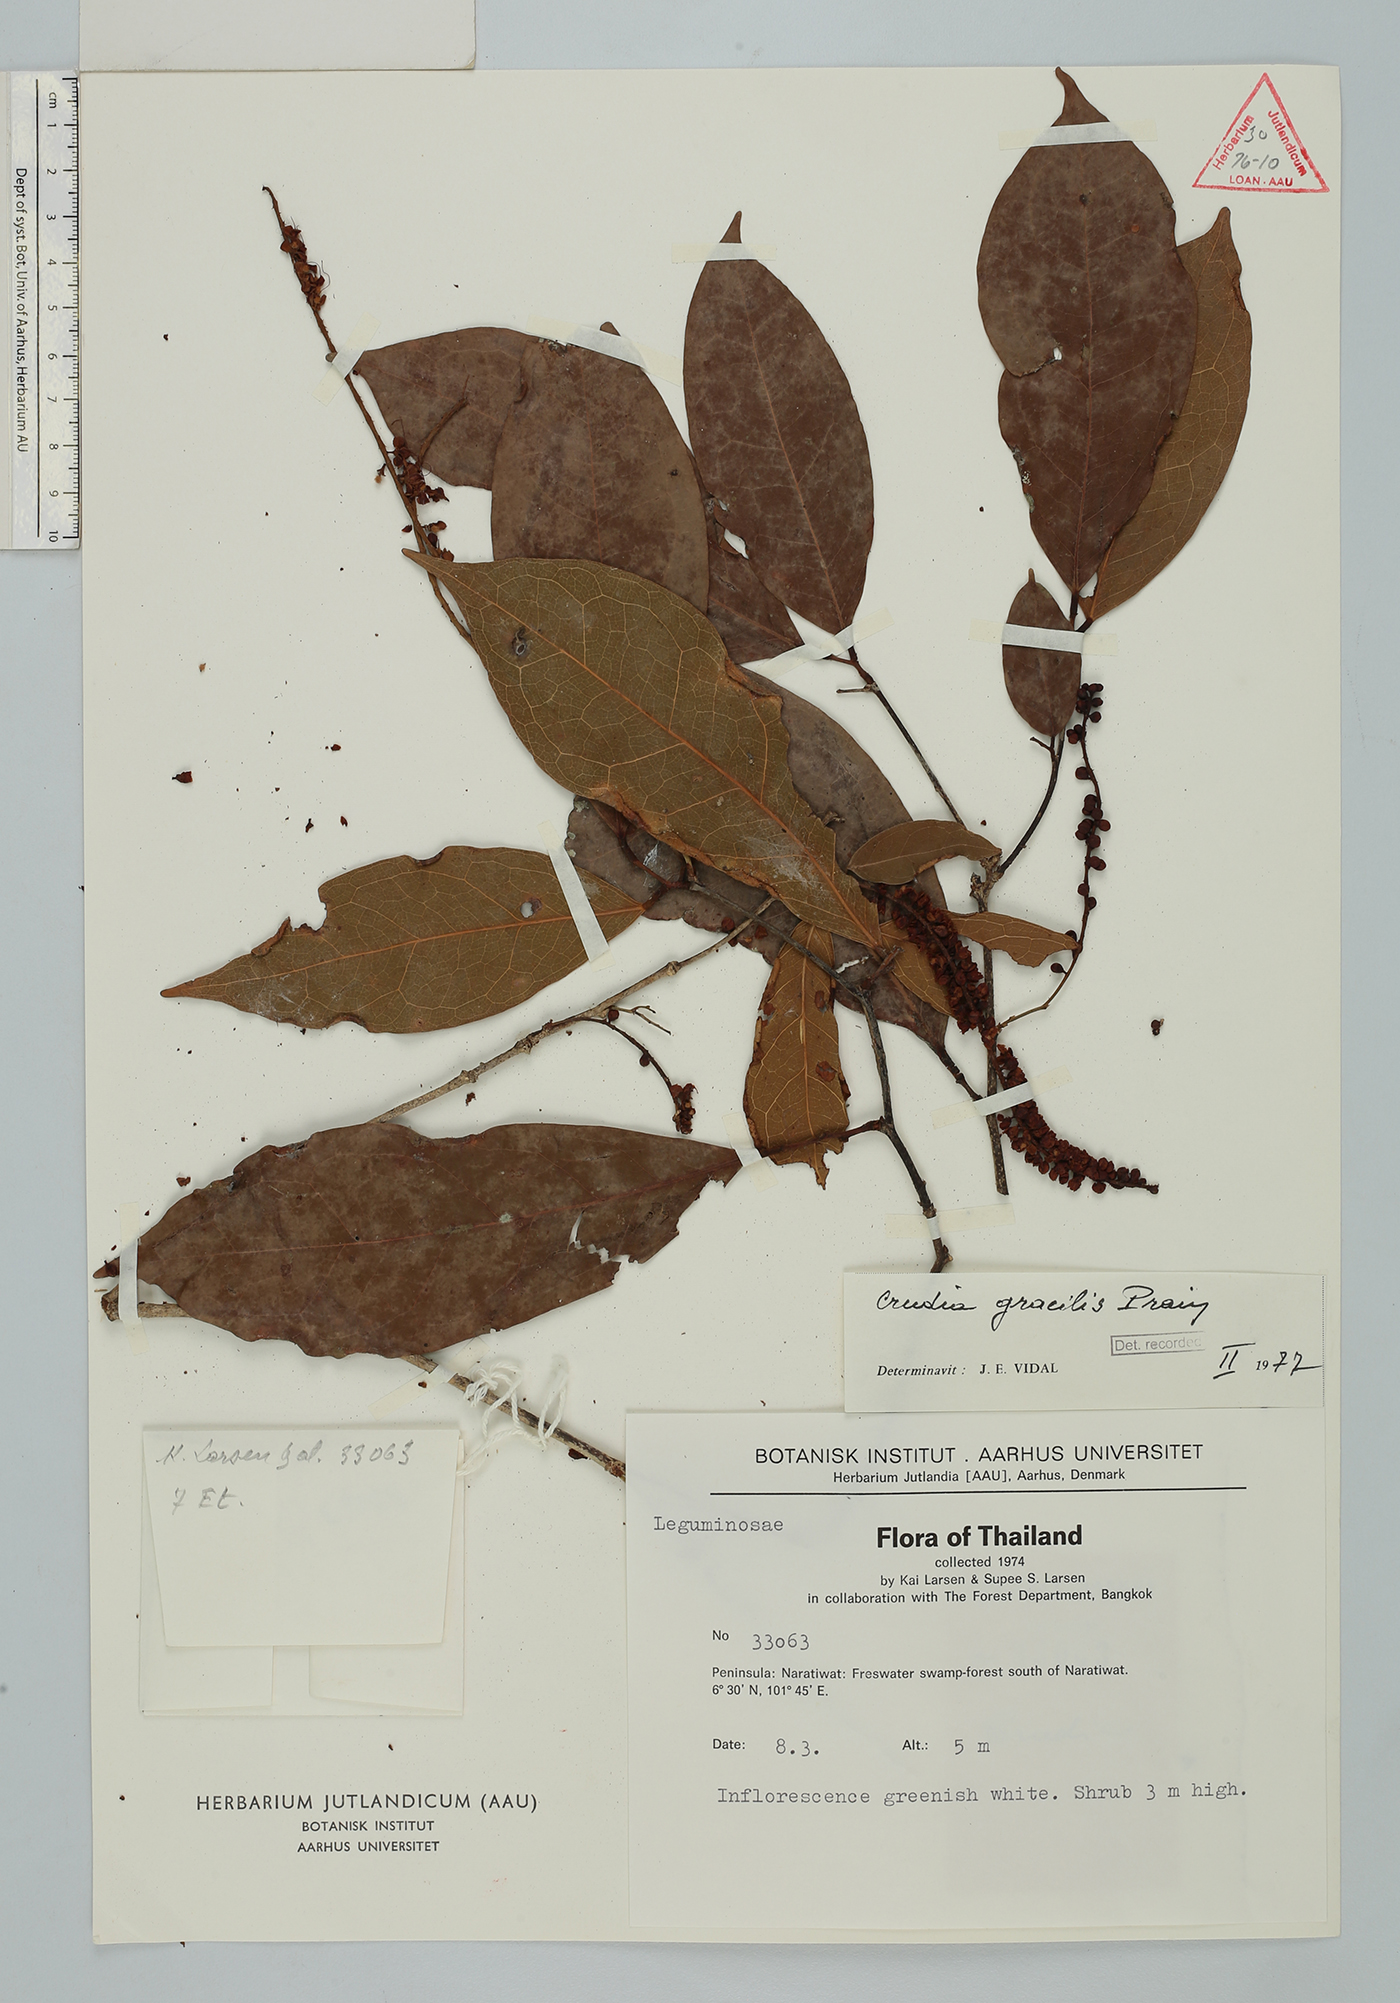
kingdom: Plantae
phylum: Tracheophyta
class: Magnoliopsida
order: Fabales
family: Fabaceae
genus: Crudia
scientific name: Crudia gracilis
